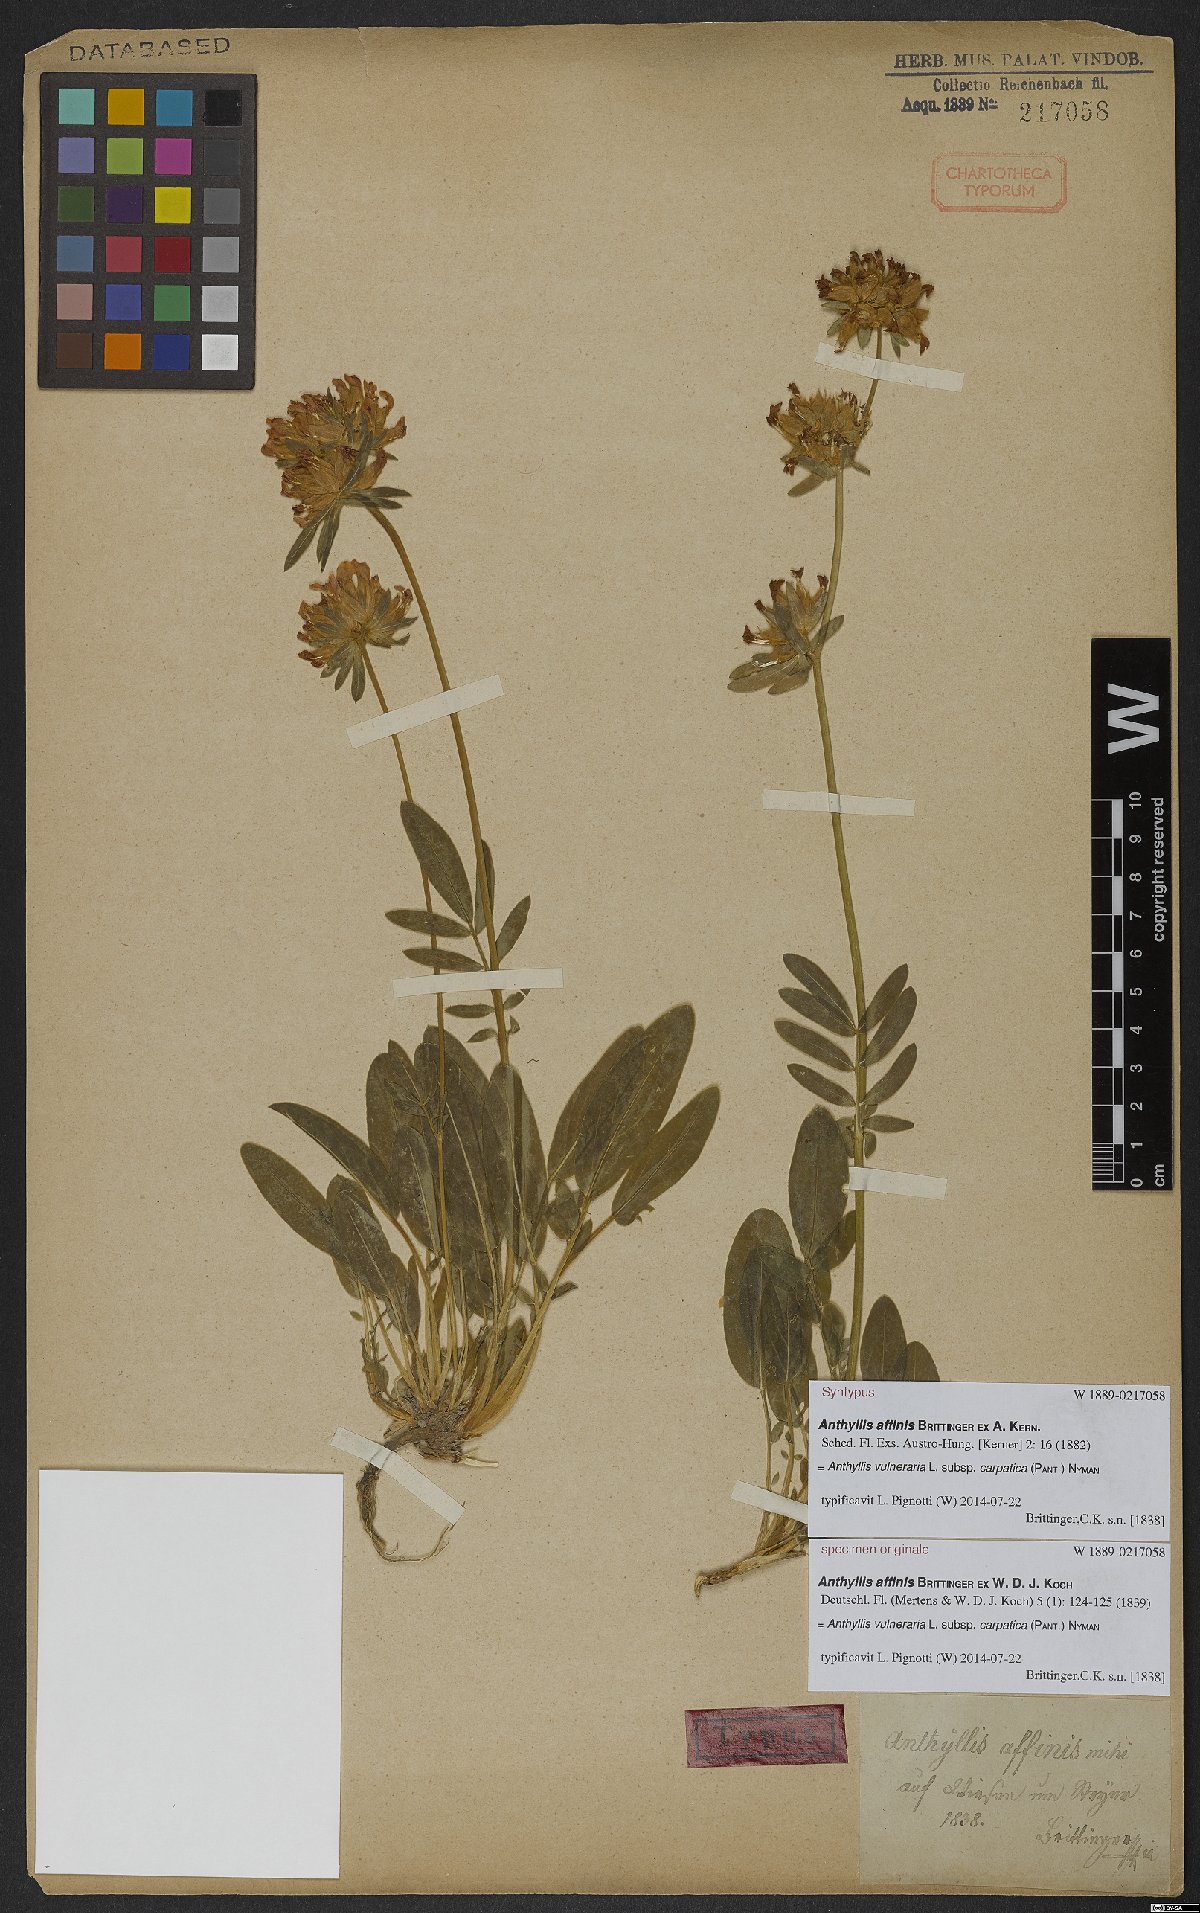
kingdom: Plantae
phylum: Tracheophyta
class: Magnoliopsida
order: Fabales
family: Fabaceae
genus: Anthyllis
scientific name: Anthyllis vulneraria
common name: Kidney vetch
